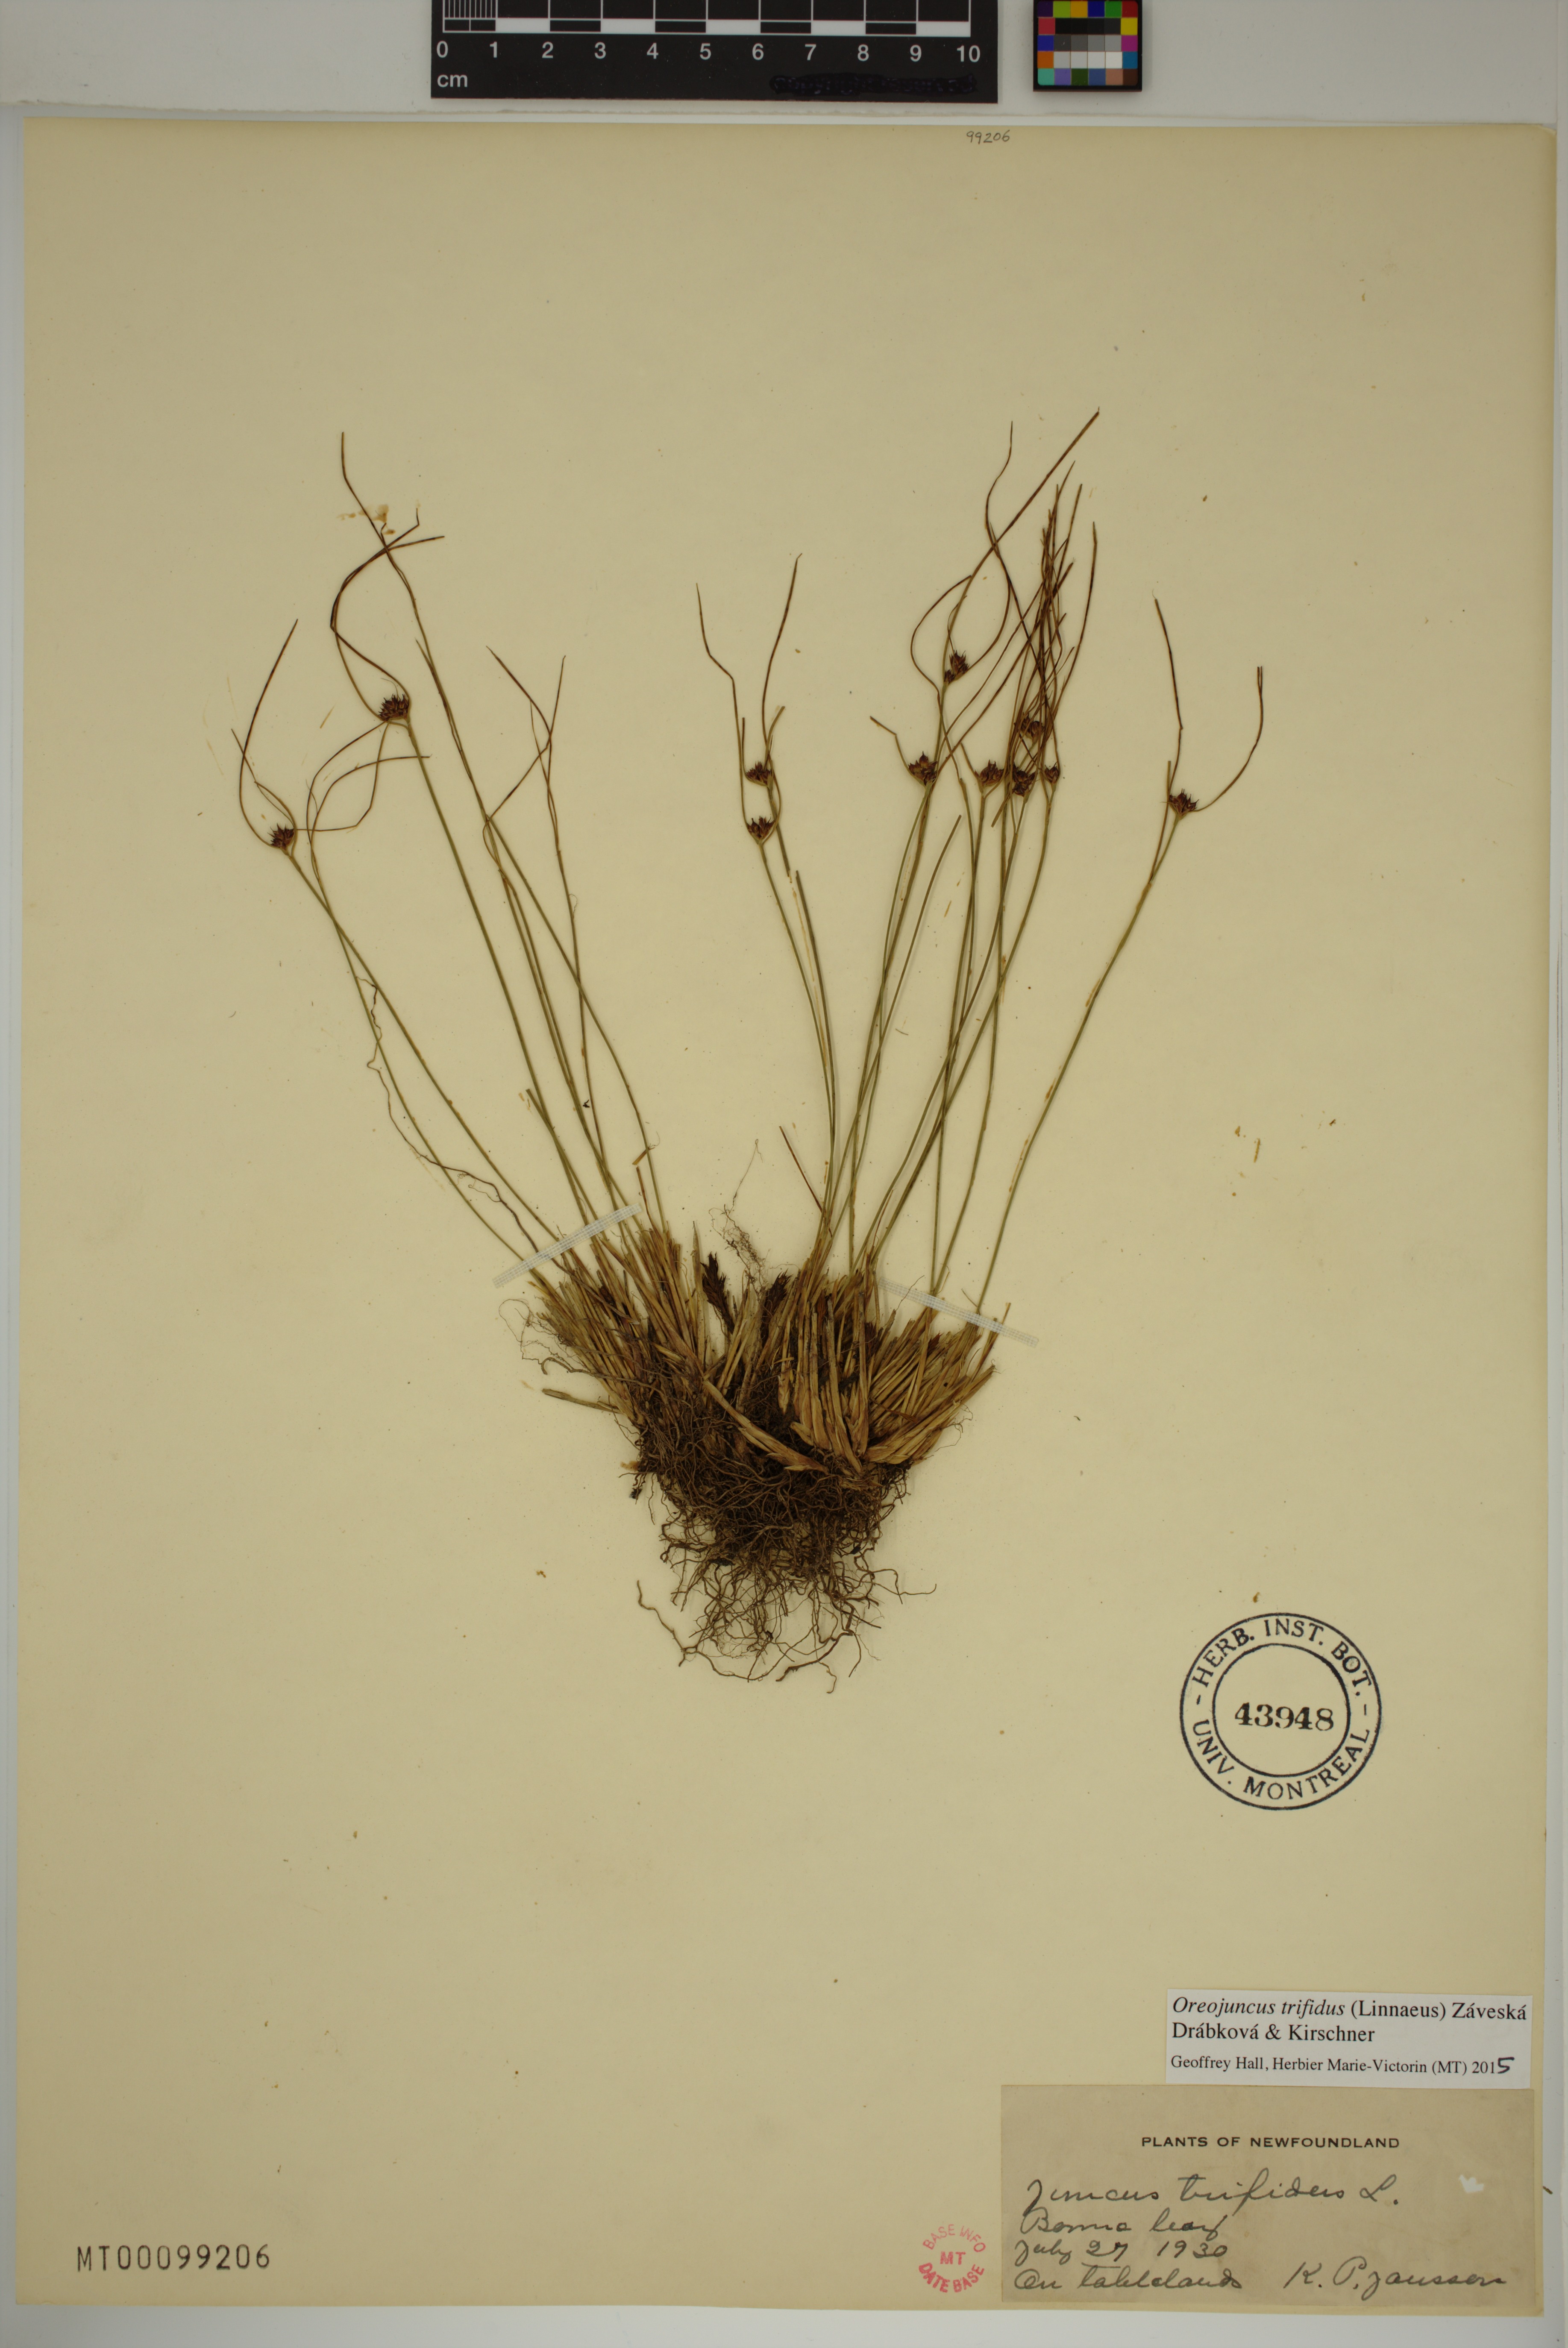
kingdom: Plantae
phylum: Tracheophyta
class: Liliopsida
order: Poales
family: Juncaceae
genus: Oreojuncus
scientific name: Oreojuncus trifidus
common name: Highland rush
